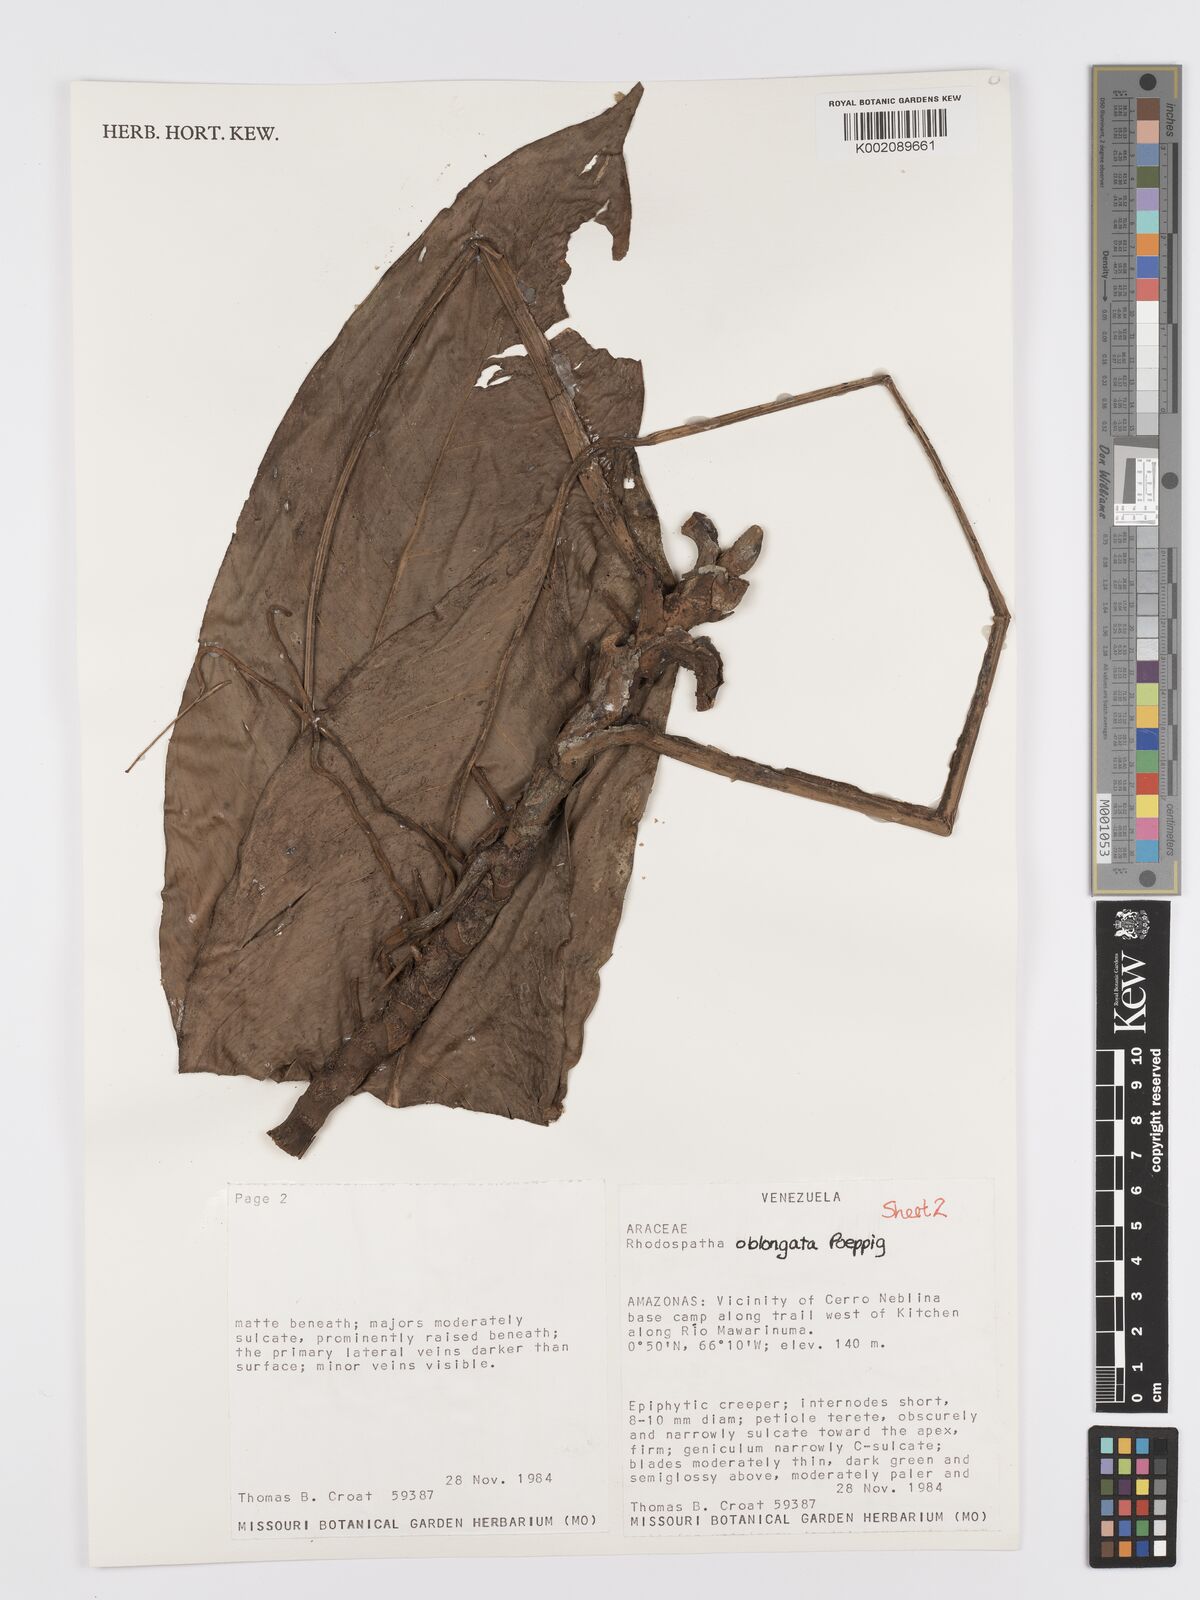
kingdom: Plantae
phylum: Tracheophyta
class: Liliopsida
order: Alismatales
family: Araceae
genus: Rhodospatha
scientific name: Rhodospatha oblongata
